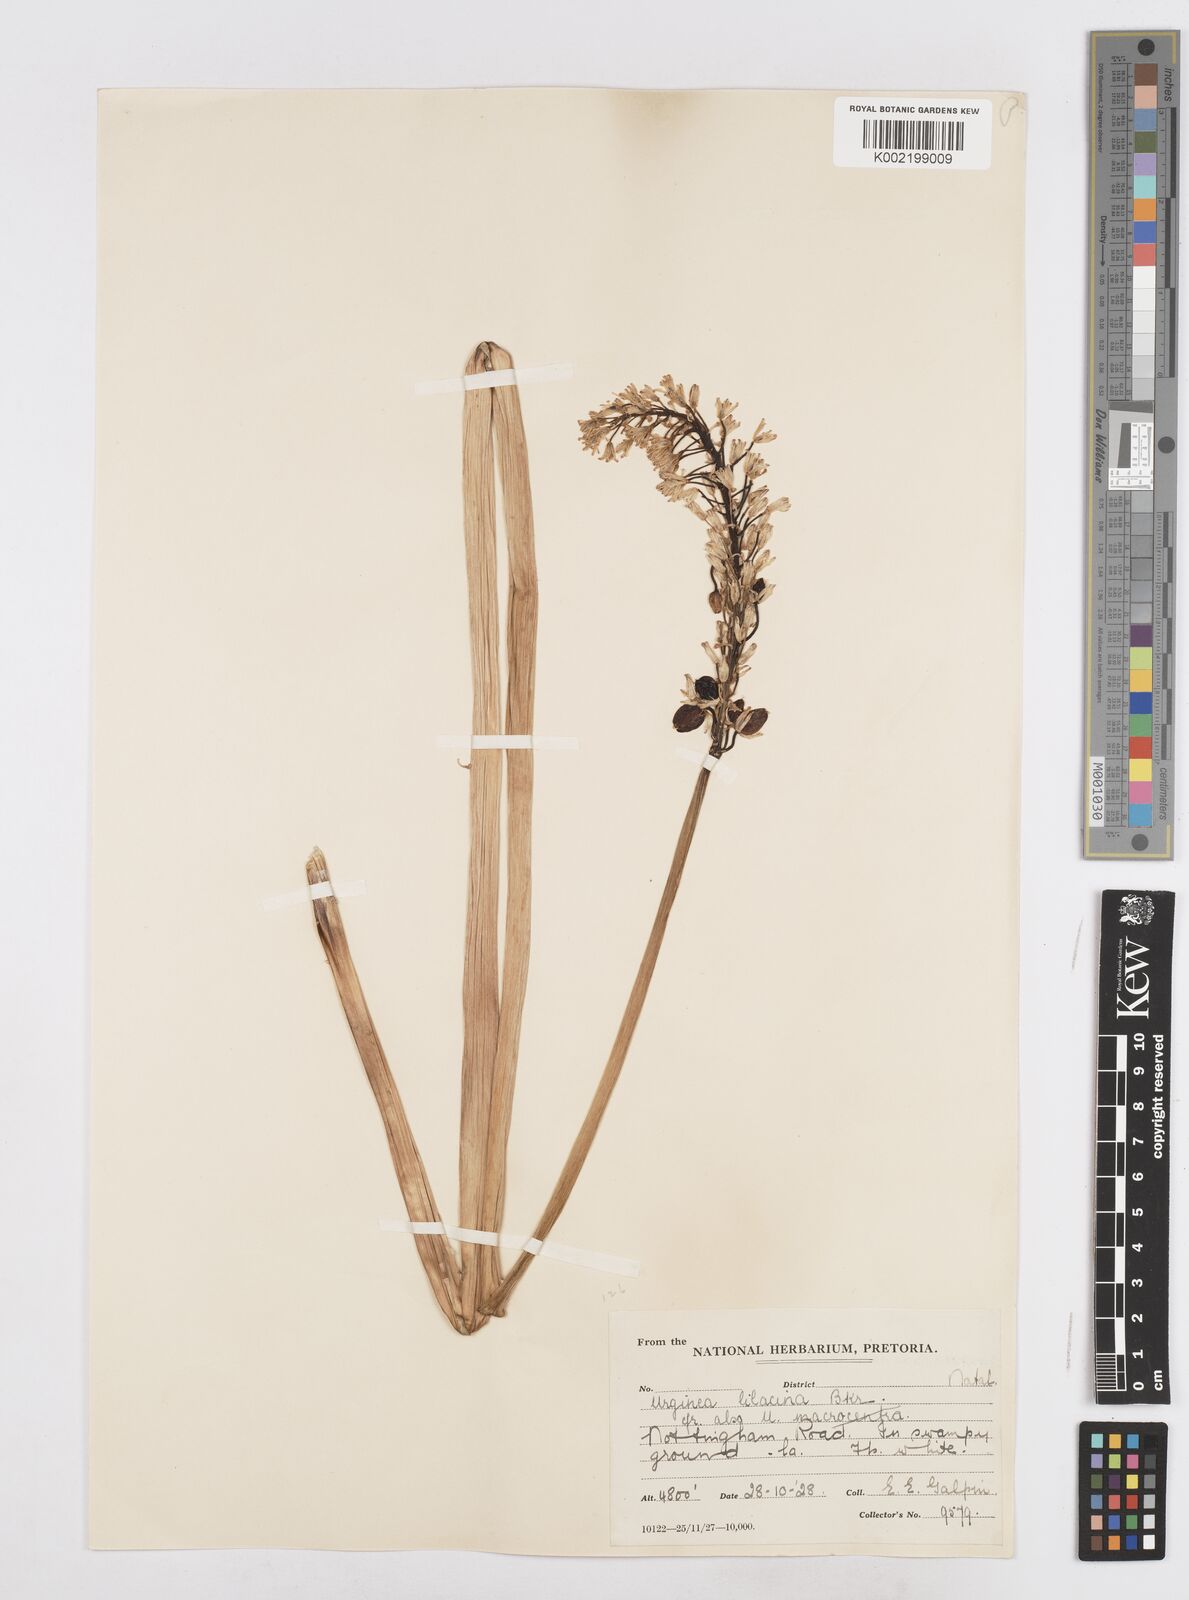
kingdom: Plantae
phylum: Tracheophyta
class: Liliopsida
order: Asparagales
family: Asparagaceae
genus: Ledebouria
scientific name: Ledebouria lilacina
